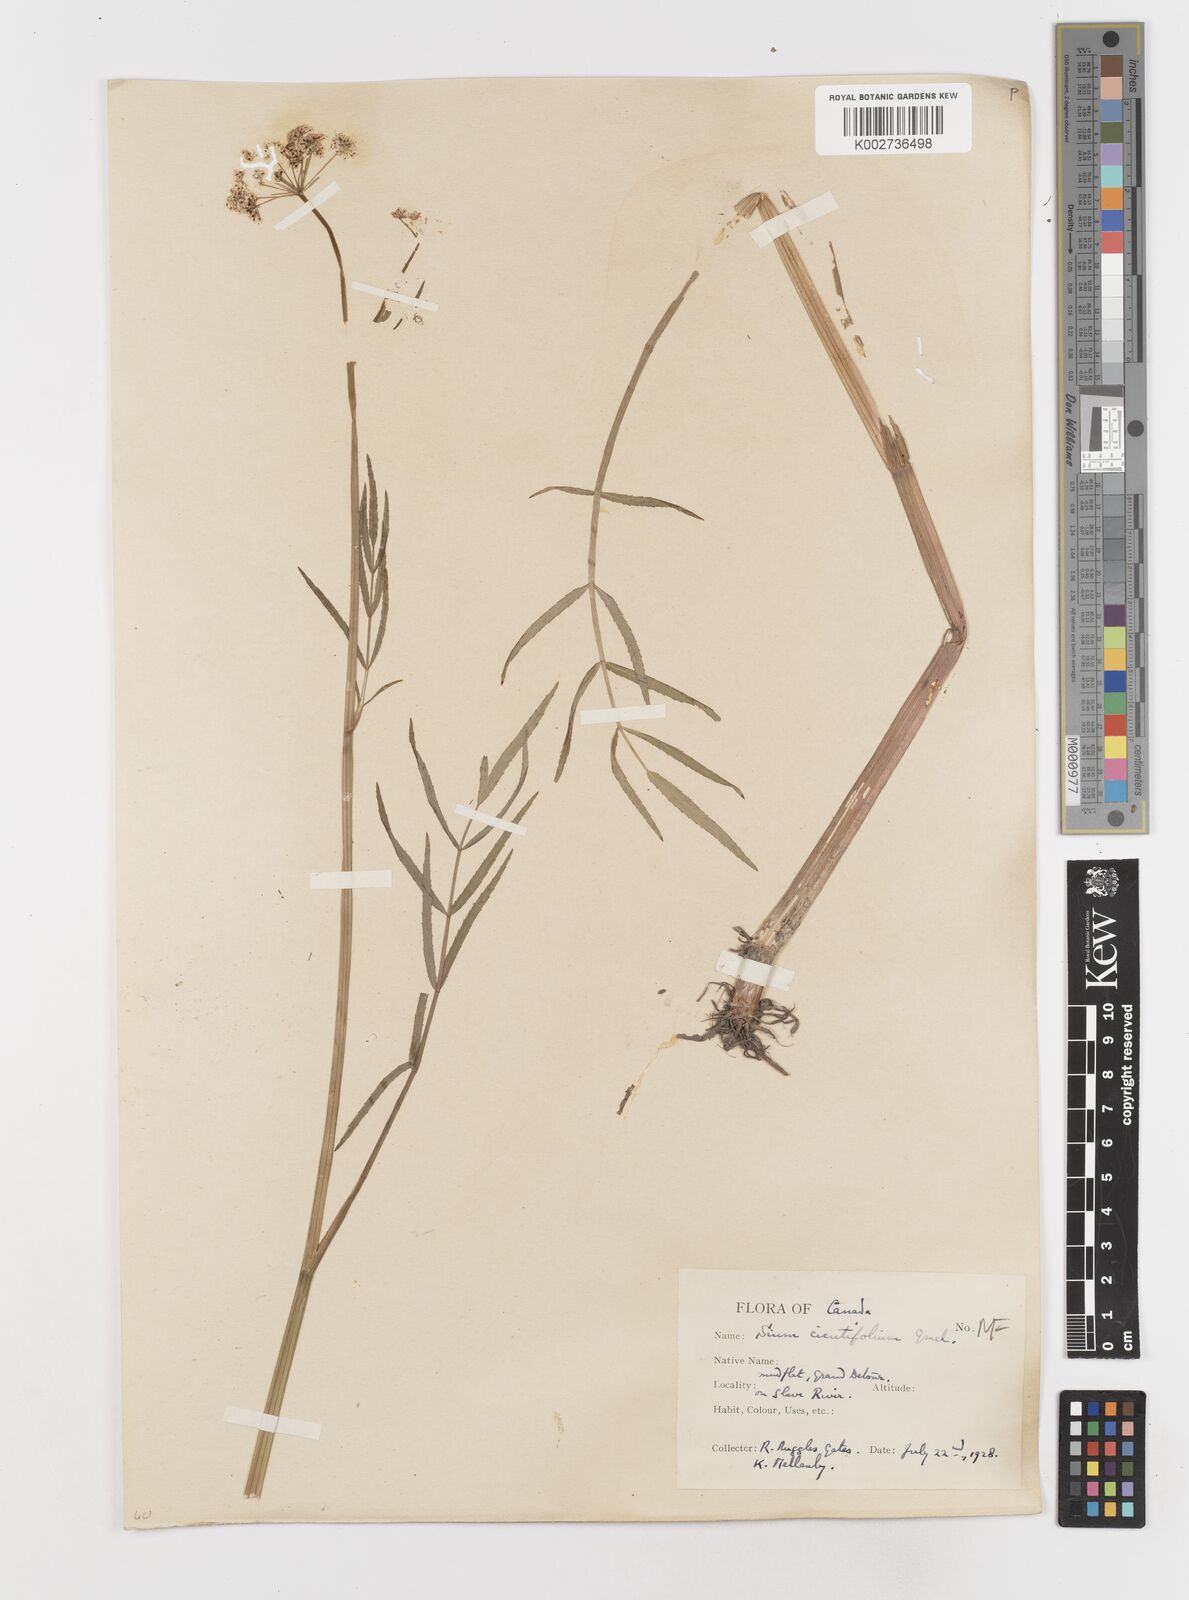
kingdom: Plantae
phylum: Tracheophyta
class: Magnoliopsida
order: Apiales
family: Apiaceae
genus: Sium
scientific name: Sium suave
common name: Hemlock water-parsnip
